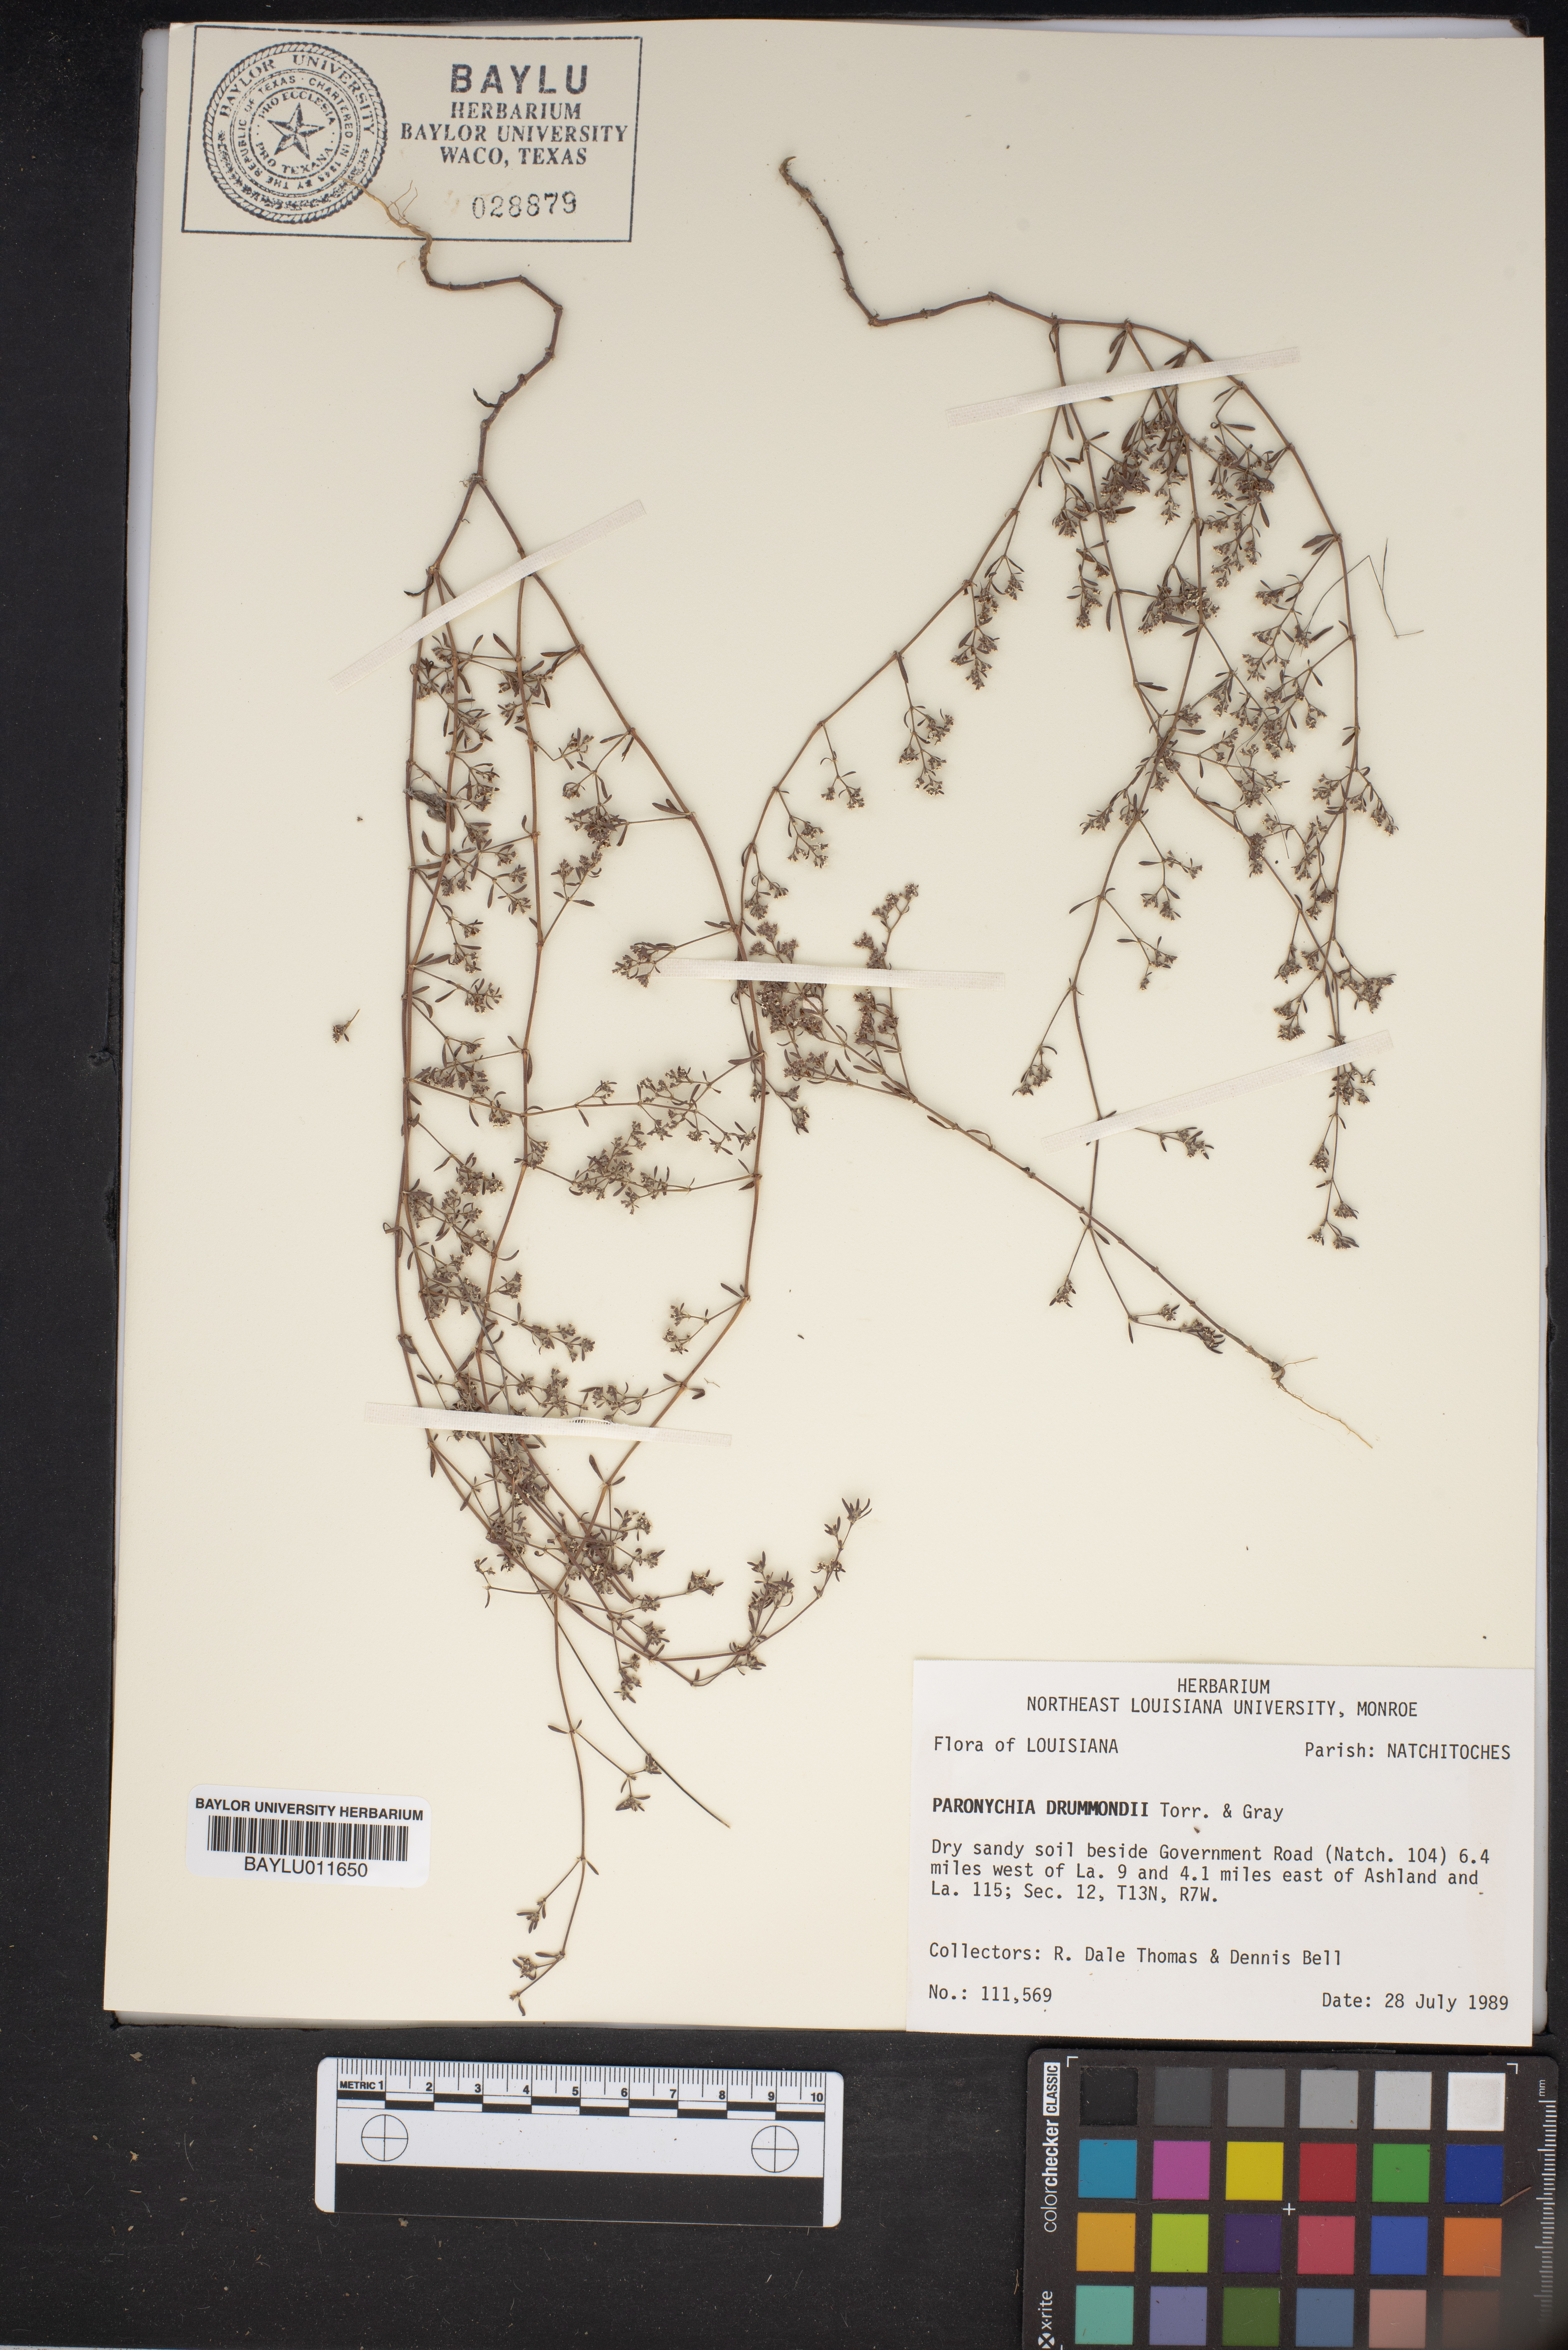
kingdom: Plantae
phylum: Tracheophyta
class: Magnoliopsida
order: Caryophyllales
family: Caryophyllaceae
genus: Paronychia
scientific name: Paronychia drummondii
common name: Drummond's nailwort
